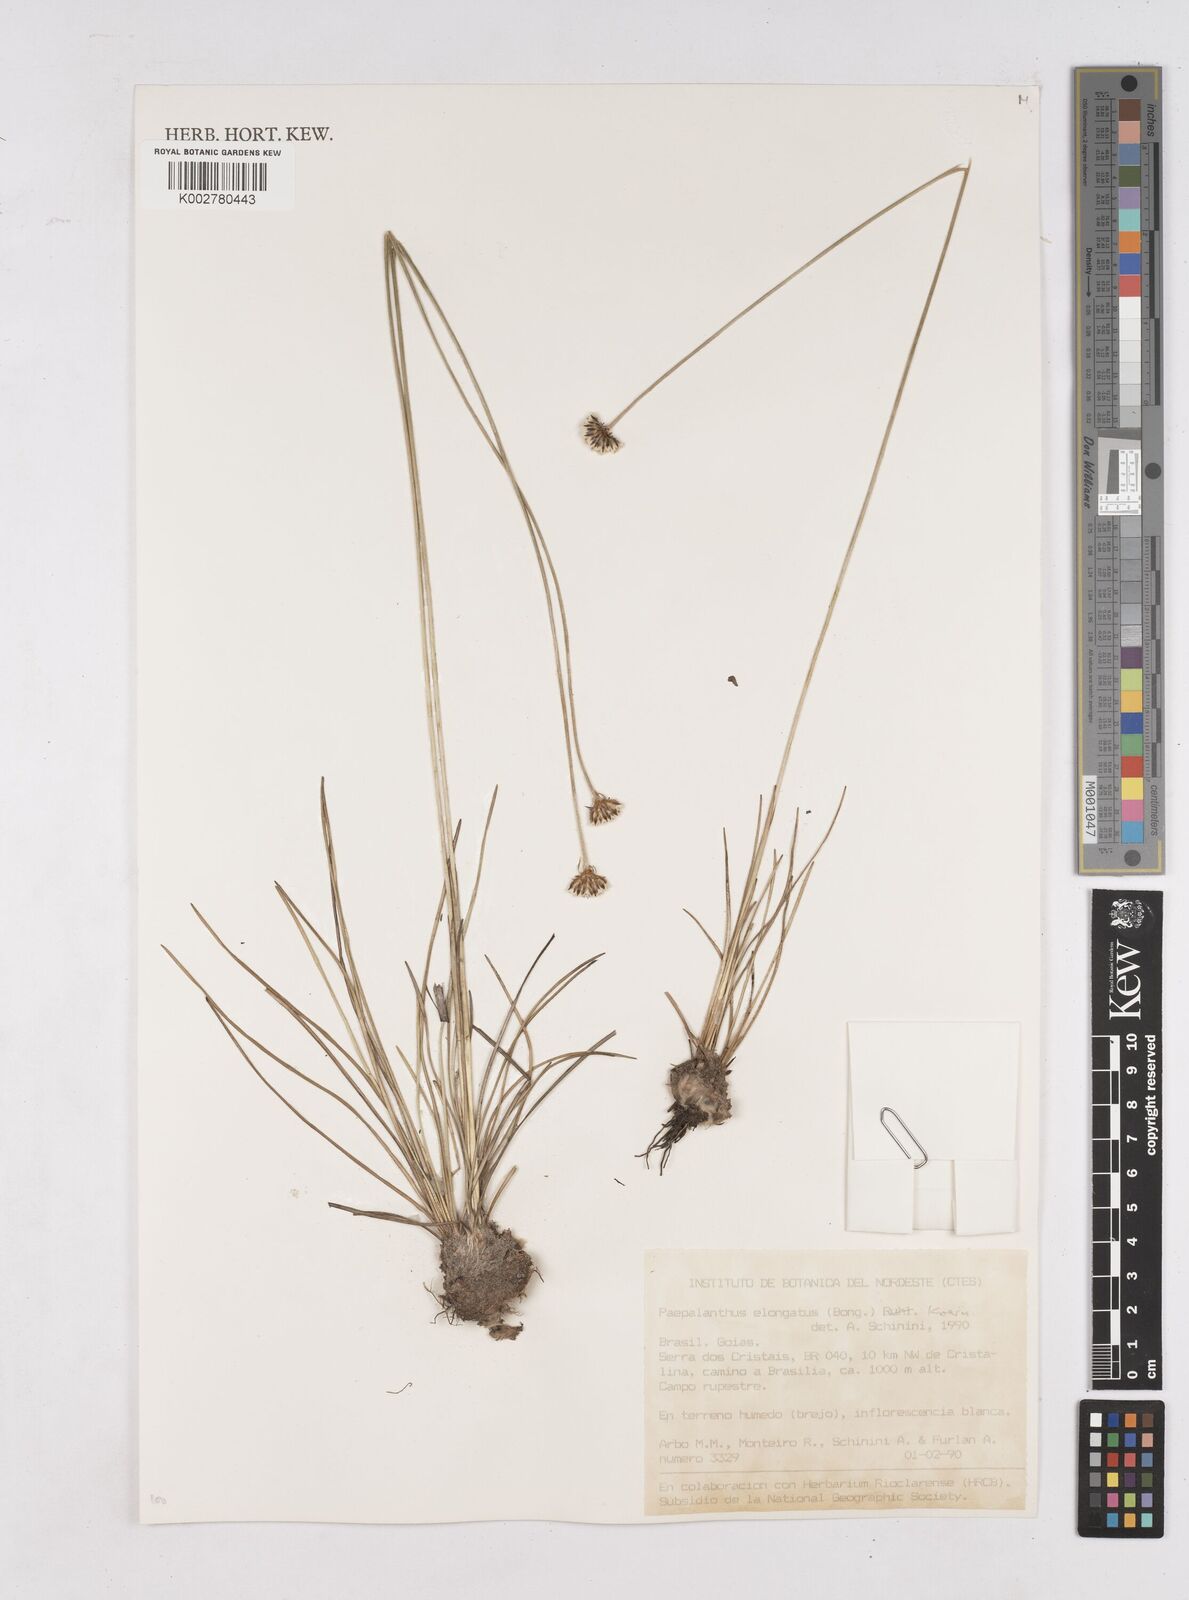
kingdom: Plantae
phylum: Tracheophyta
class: Liliopsida
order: Poales
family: Eriocaulaceae
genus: Paepalanthus
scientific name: Paepalanthus elongatus
